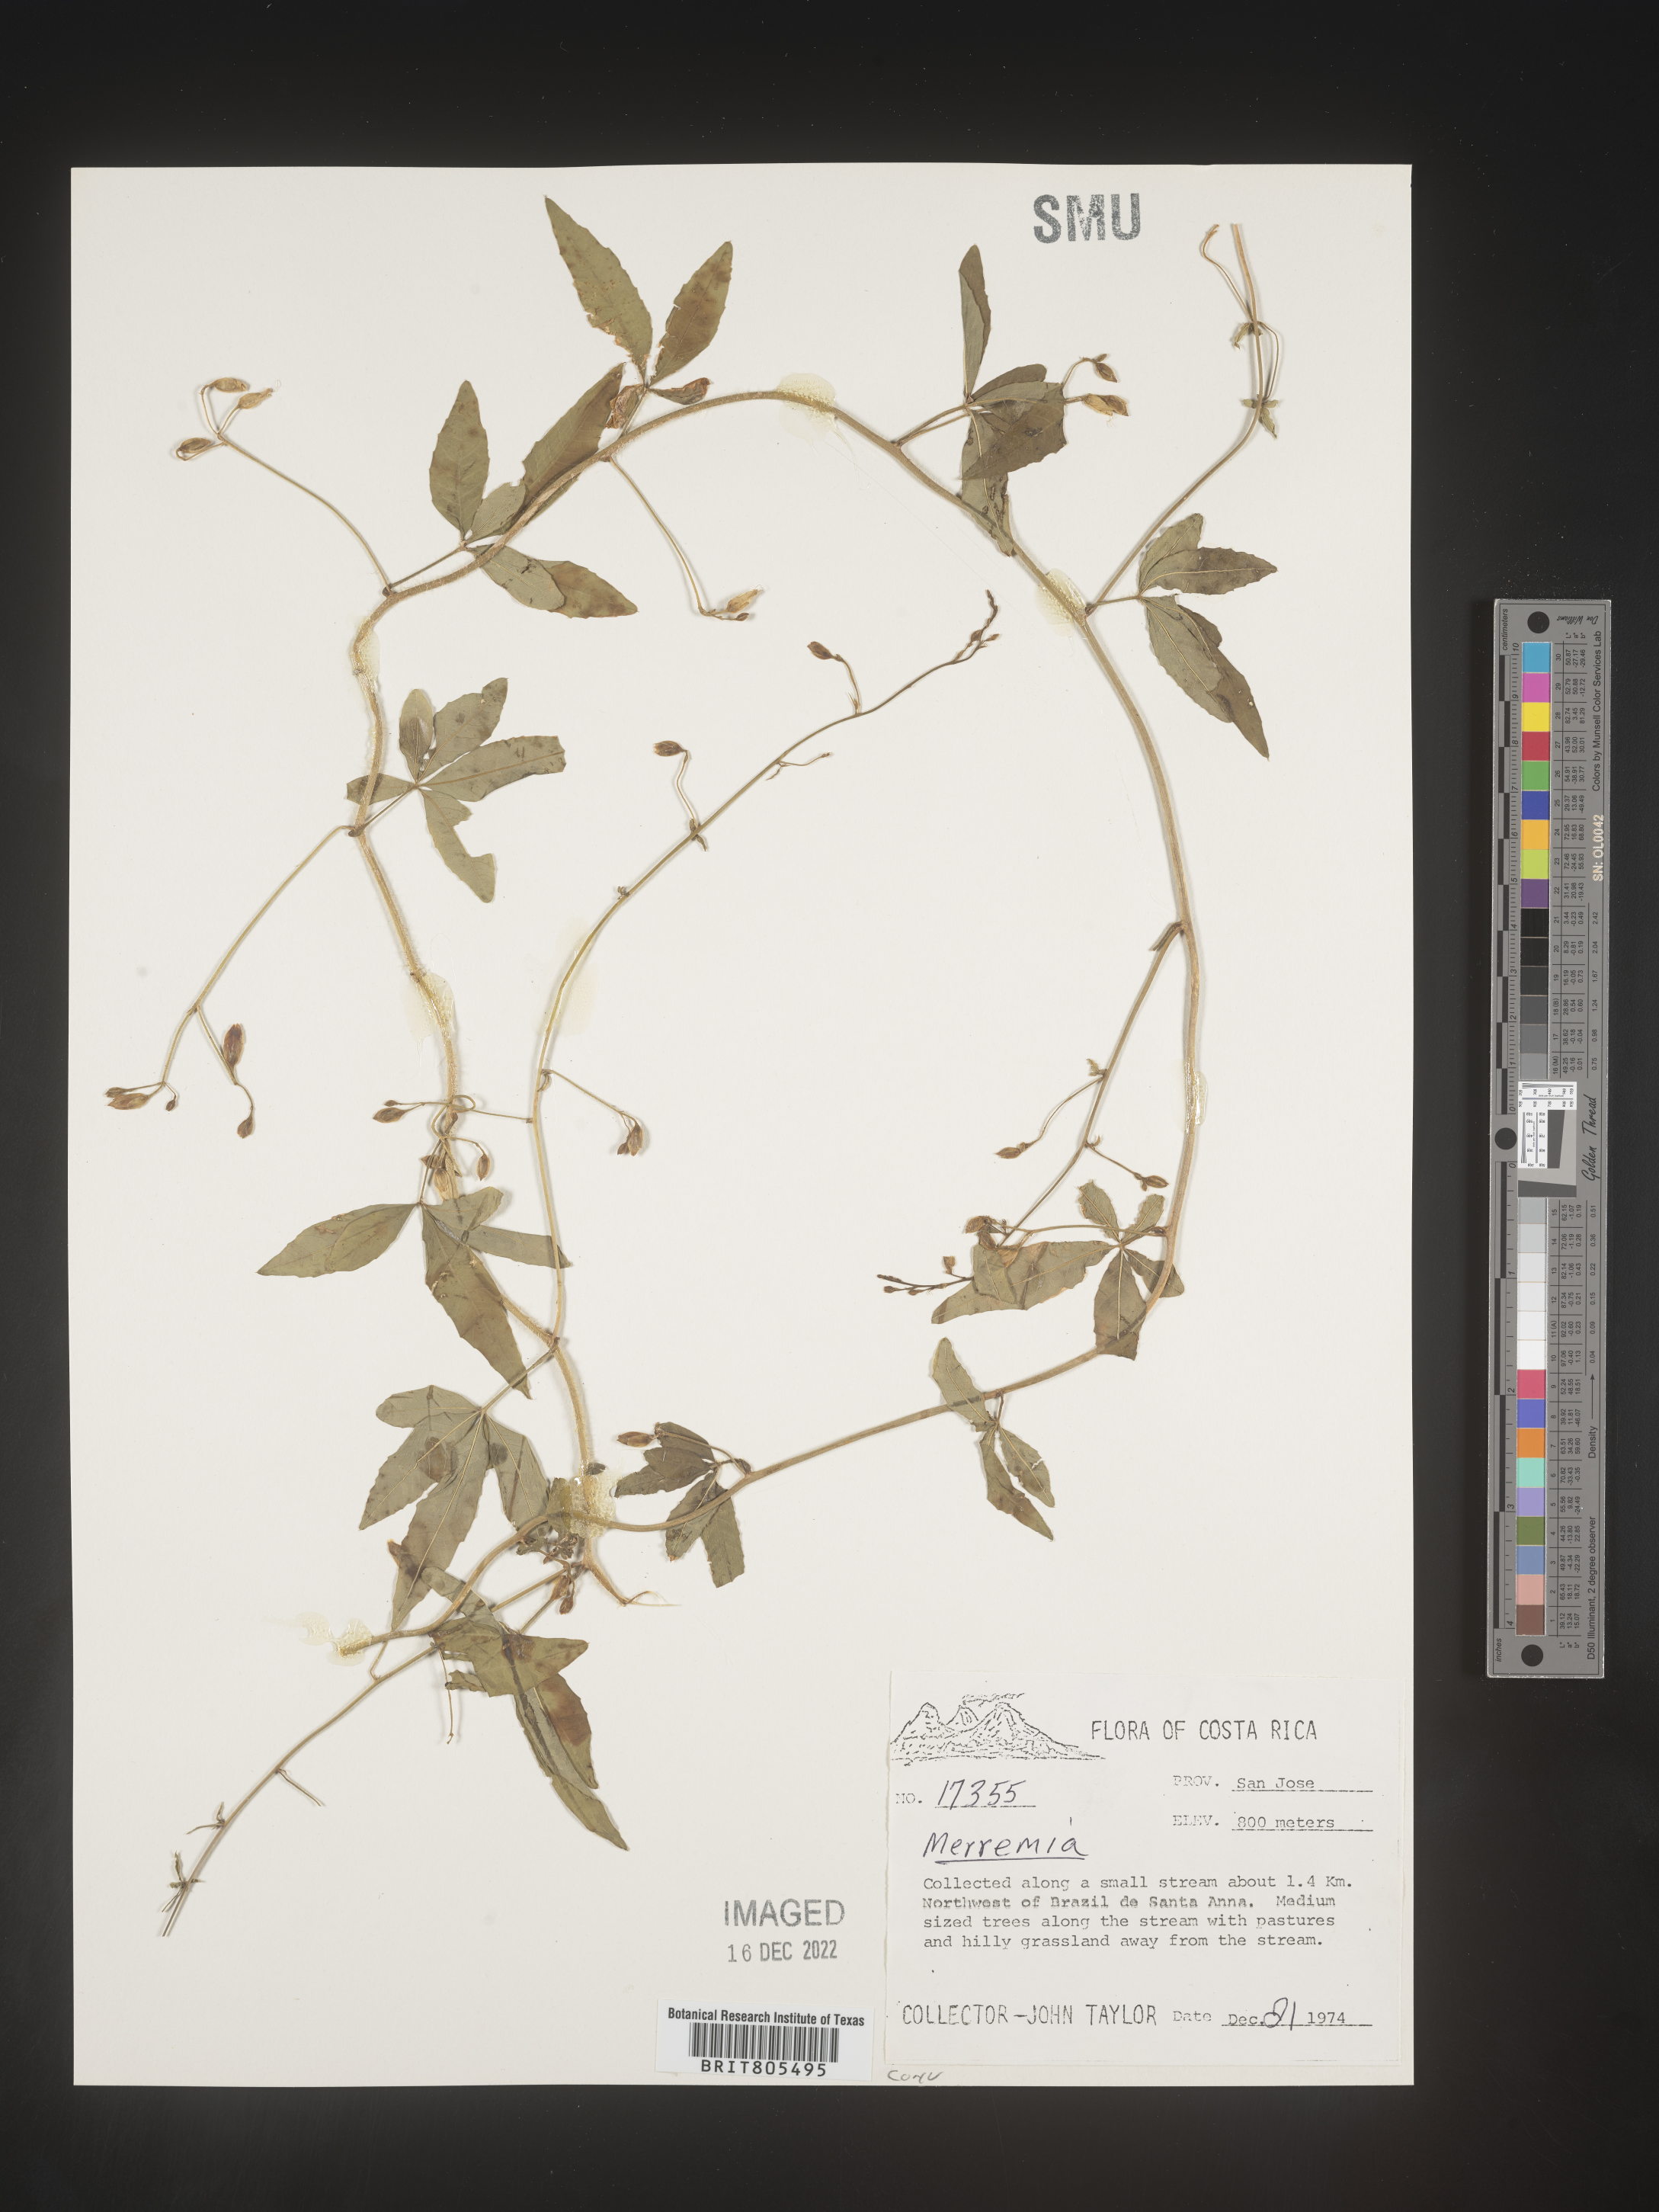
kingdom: Plantae
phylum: Tracheophyta
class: Magnoliopsida
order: Solanales
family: Convolvulaceae
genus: Ipomoea
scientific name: Ipomoea
